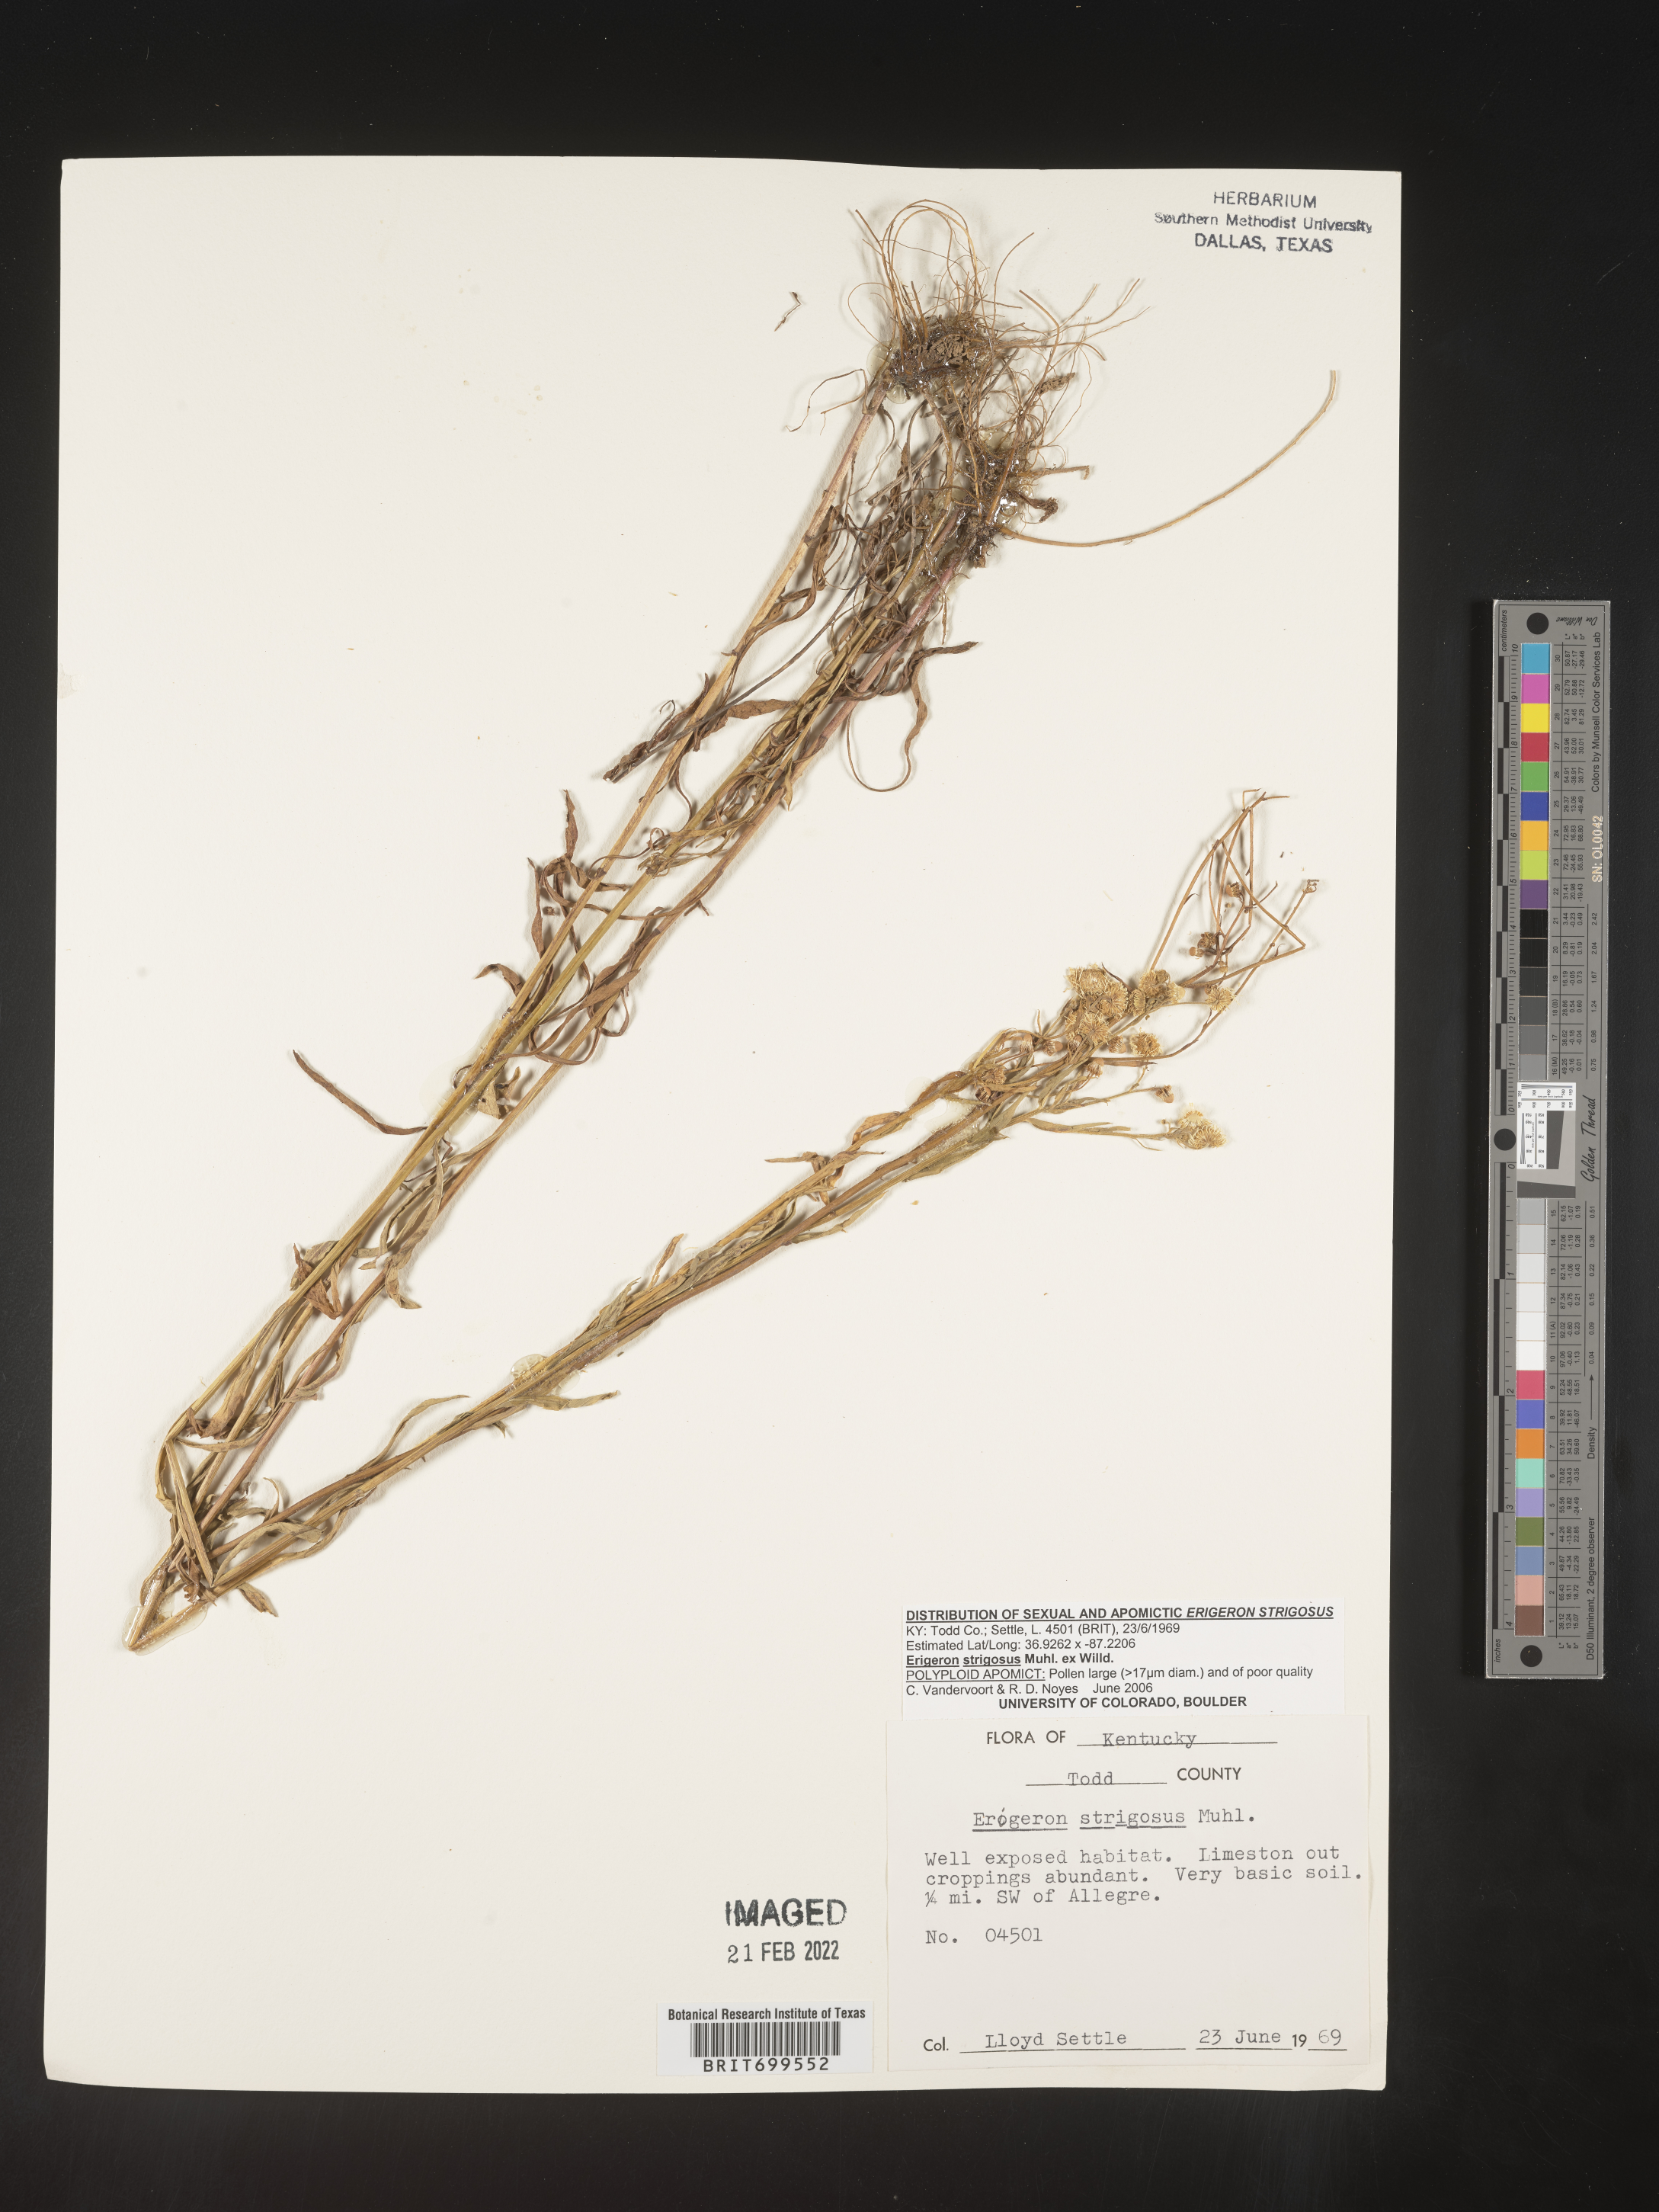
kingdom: Plantae
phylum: Tracheophyta
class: Magnoliopsida
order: Asterales
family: Asteraceae
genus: Erigeron
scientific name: Erigeron strigosus
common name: Common eastern fleabane
